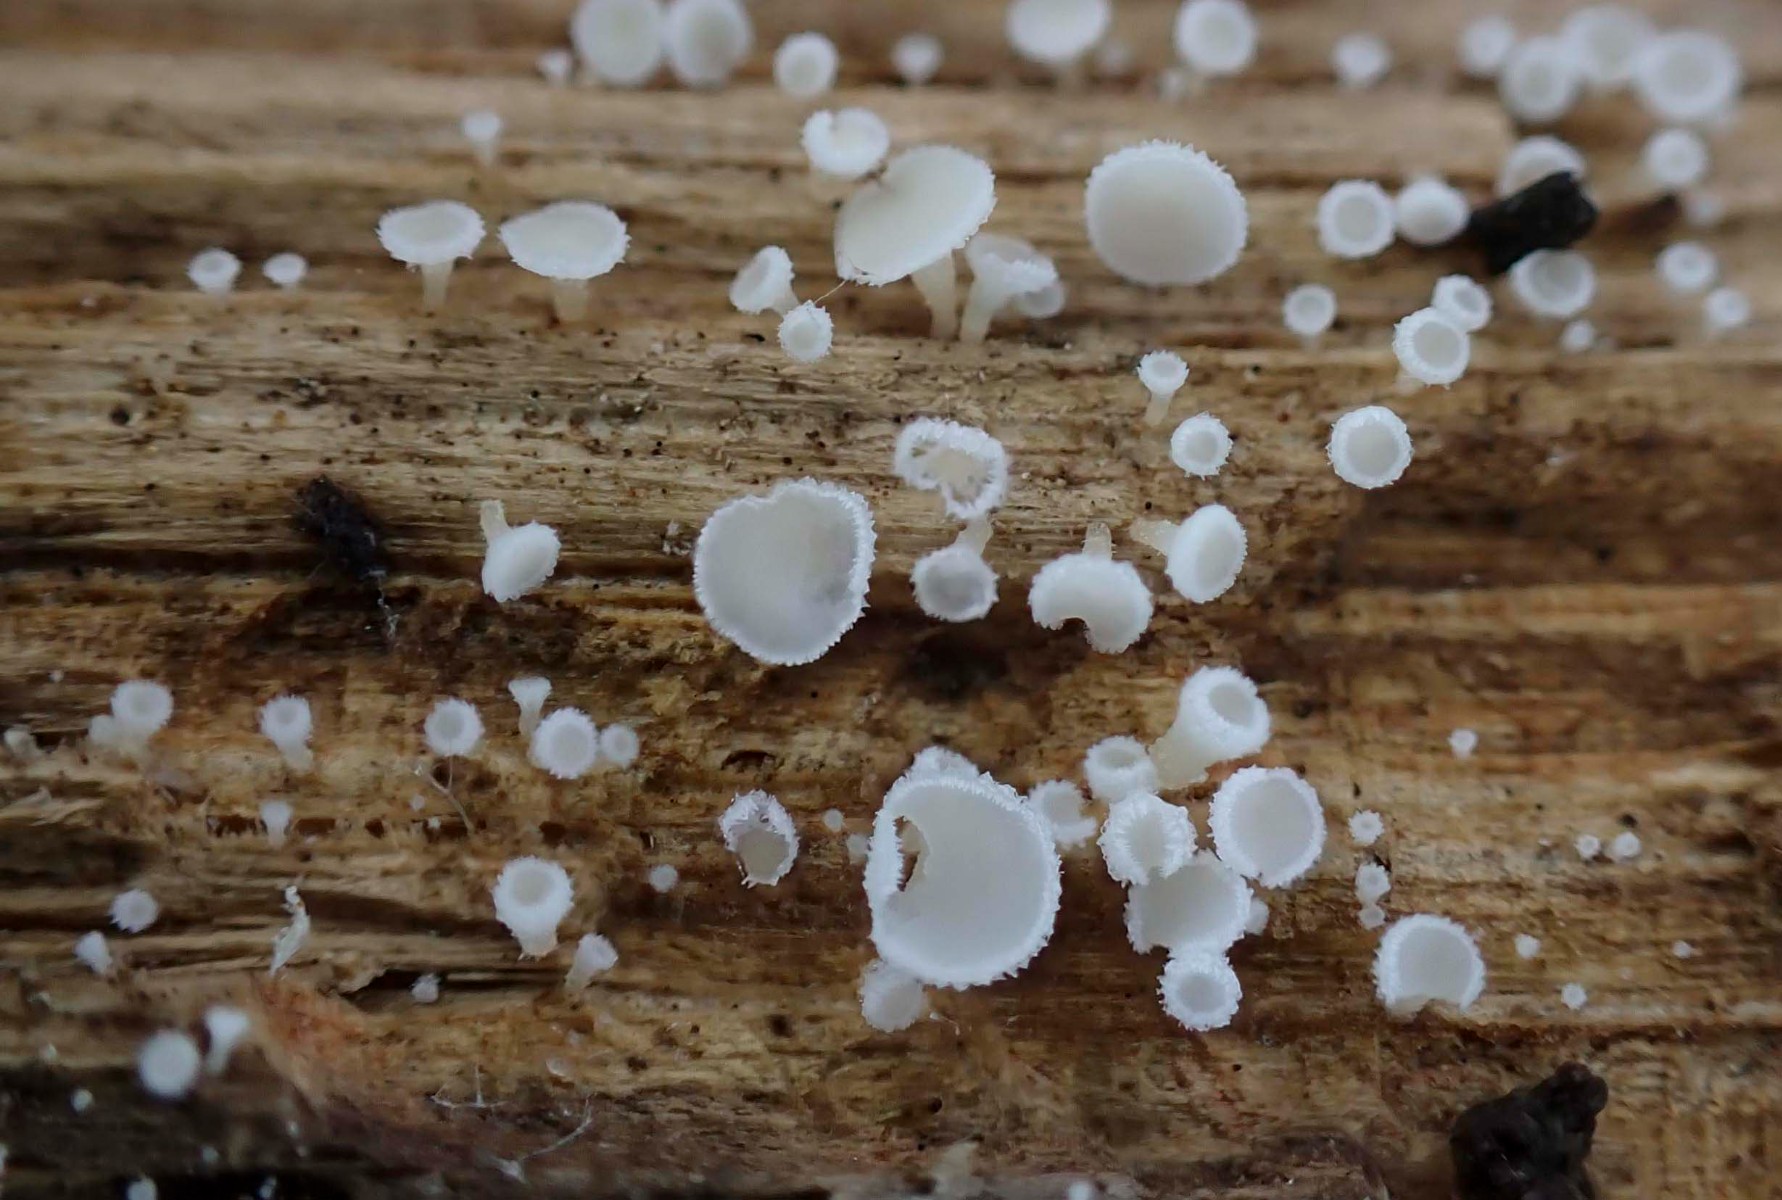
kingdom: Fungi
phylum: Ascomycota
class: Leotiomycetes
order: Helotiales
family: Lachnaceae
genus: Dasyscyphella
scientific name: Dasyscyphella nivea
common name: hvid frynseskive
